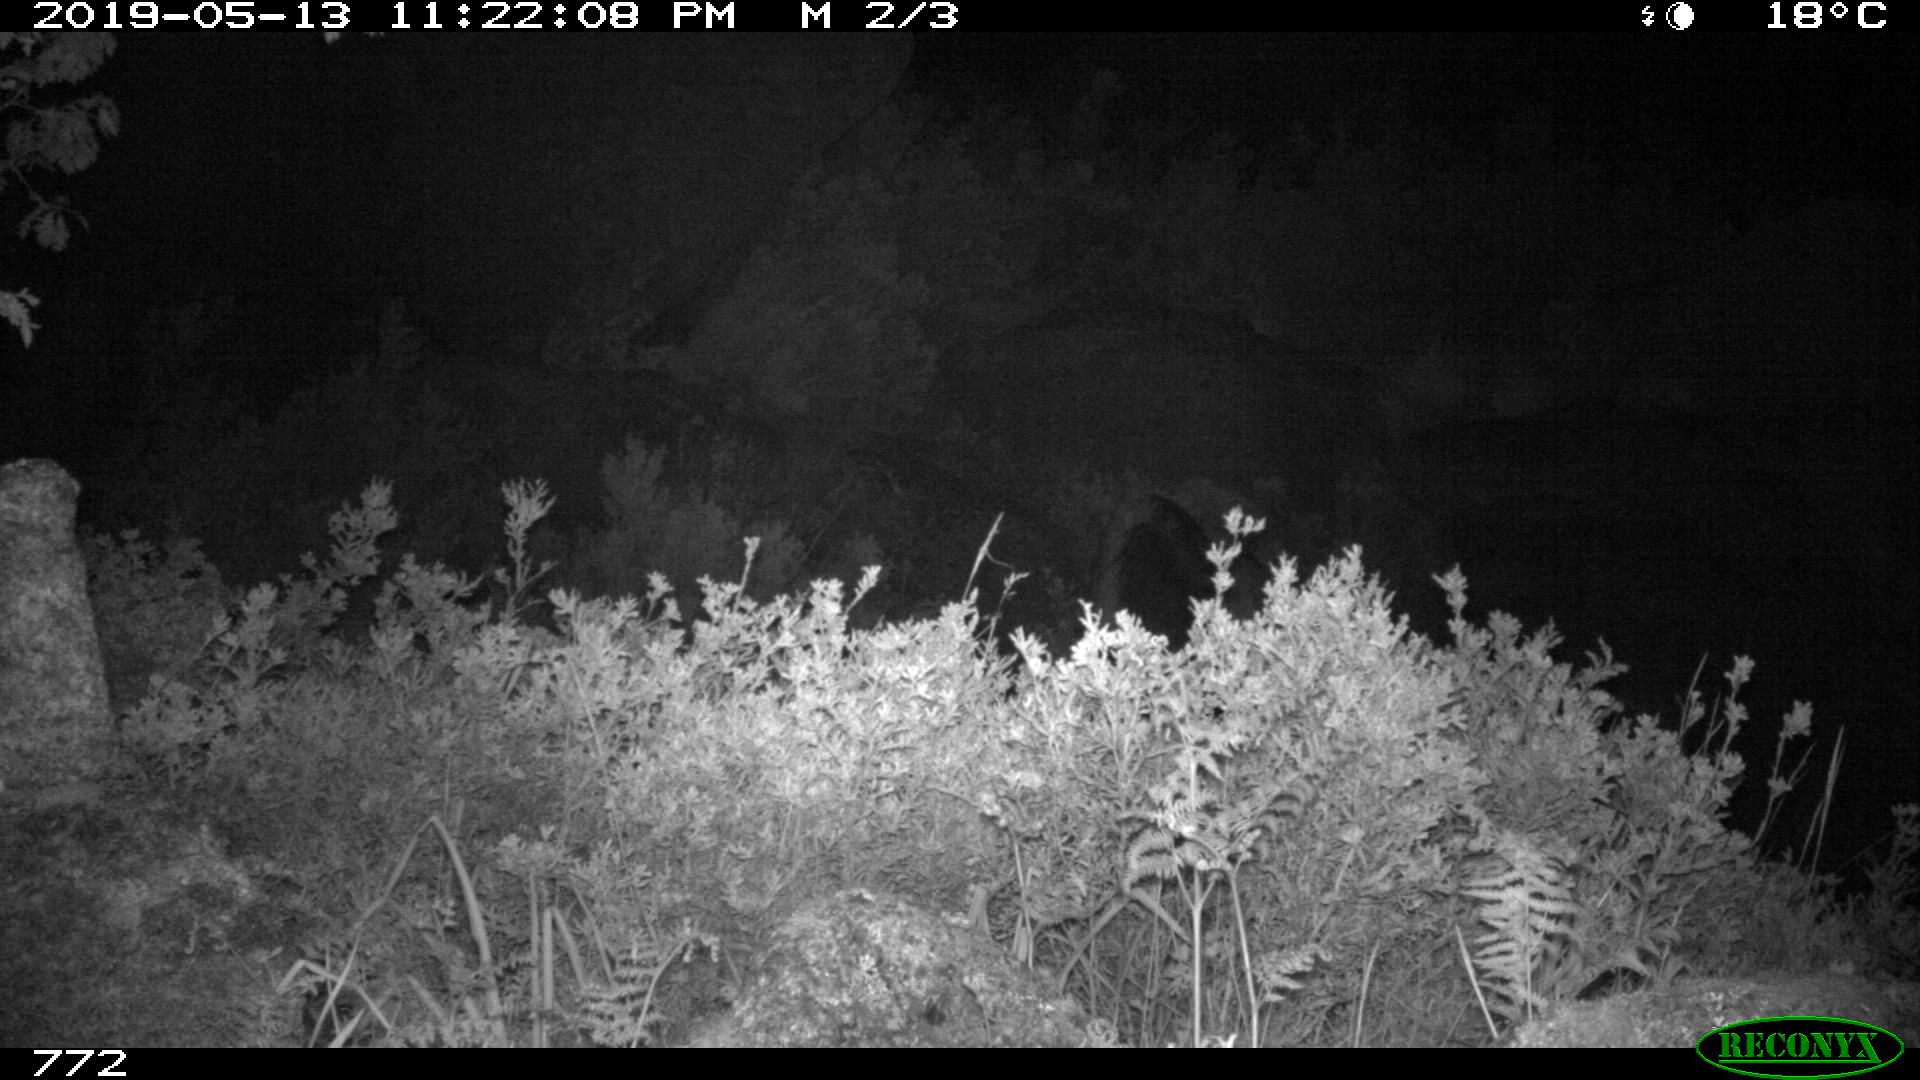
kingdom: Animalia
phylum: Chordata
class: Mammalia
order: Perissodactyla
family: Equidae
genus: Equus
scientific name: Equus caballus
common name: Horse
